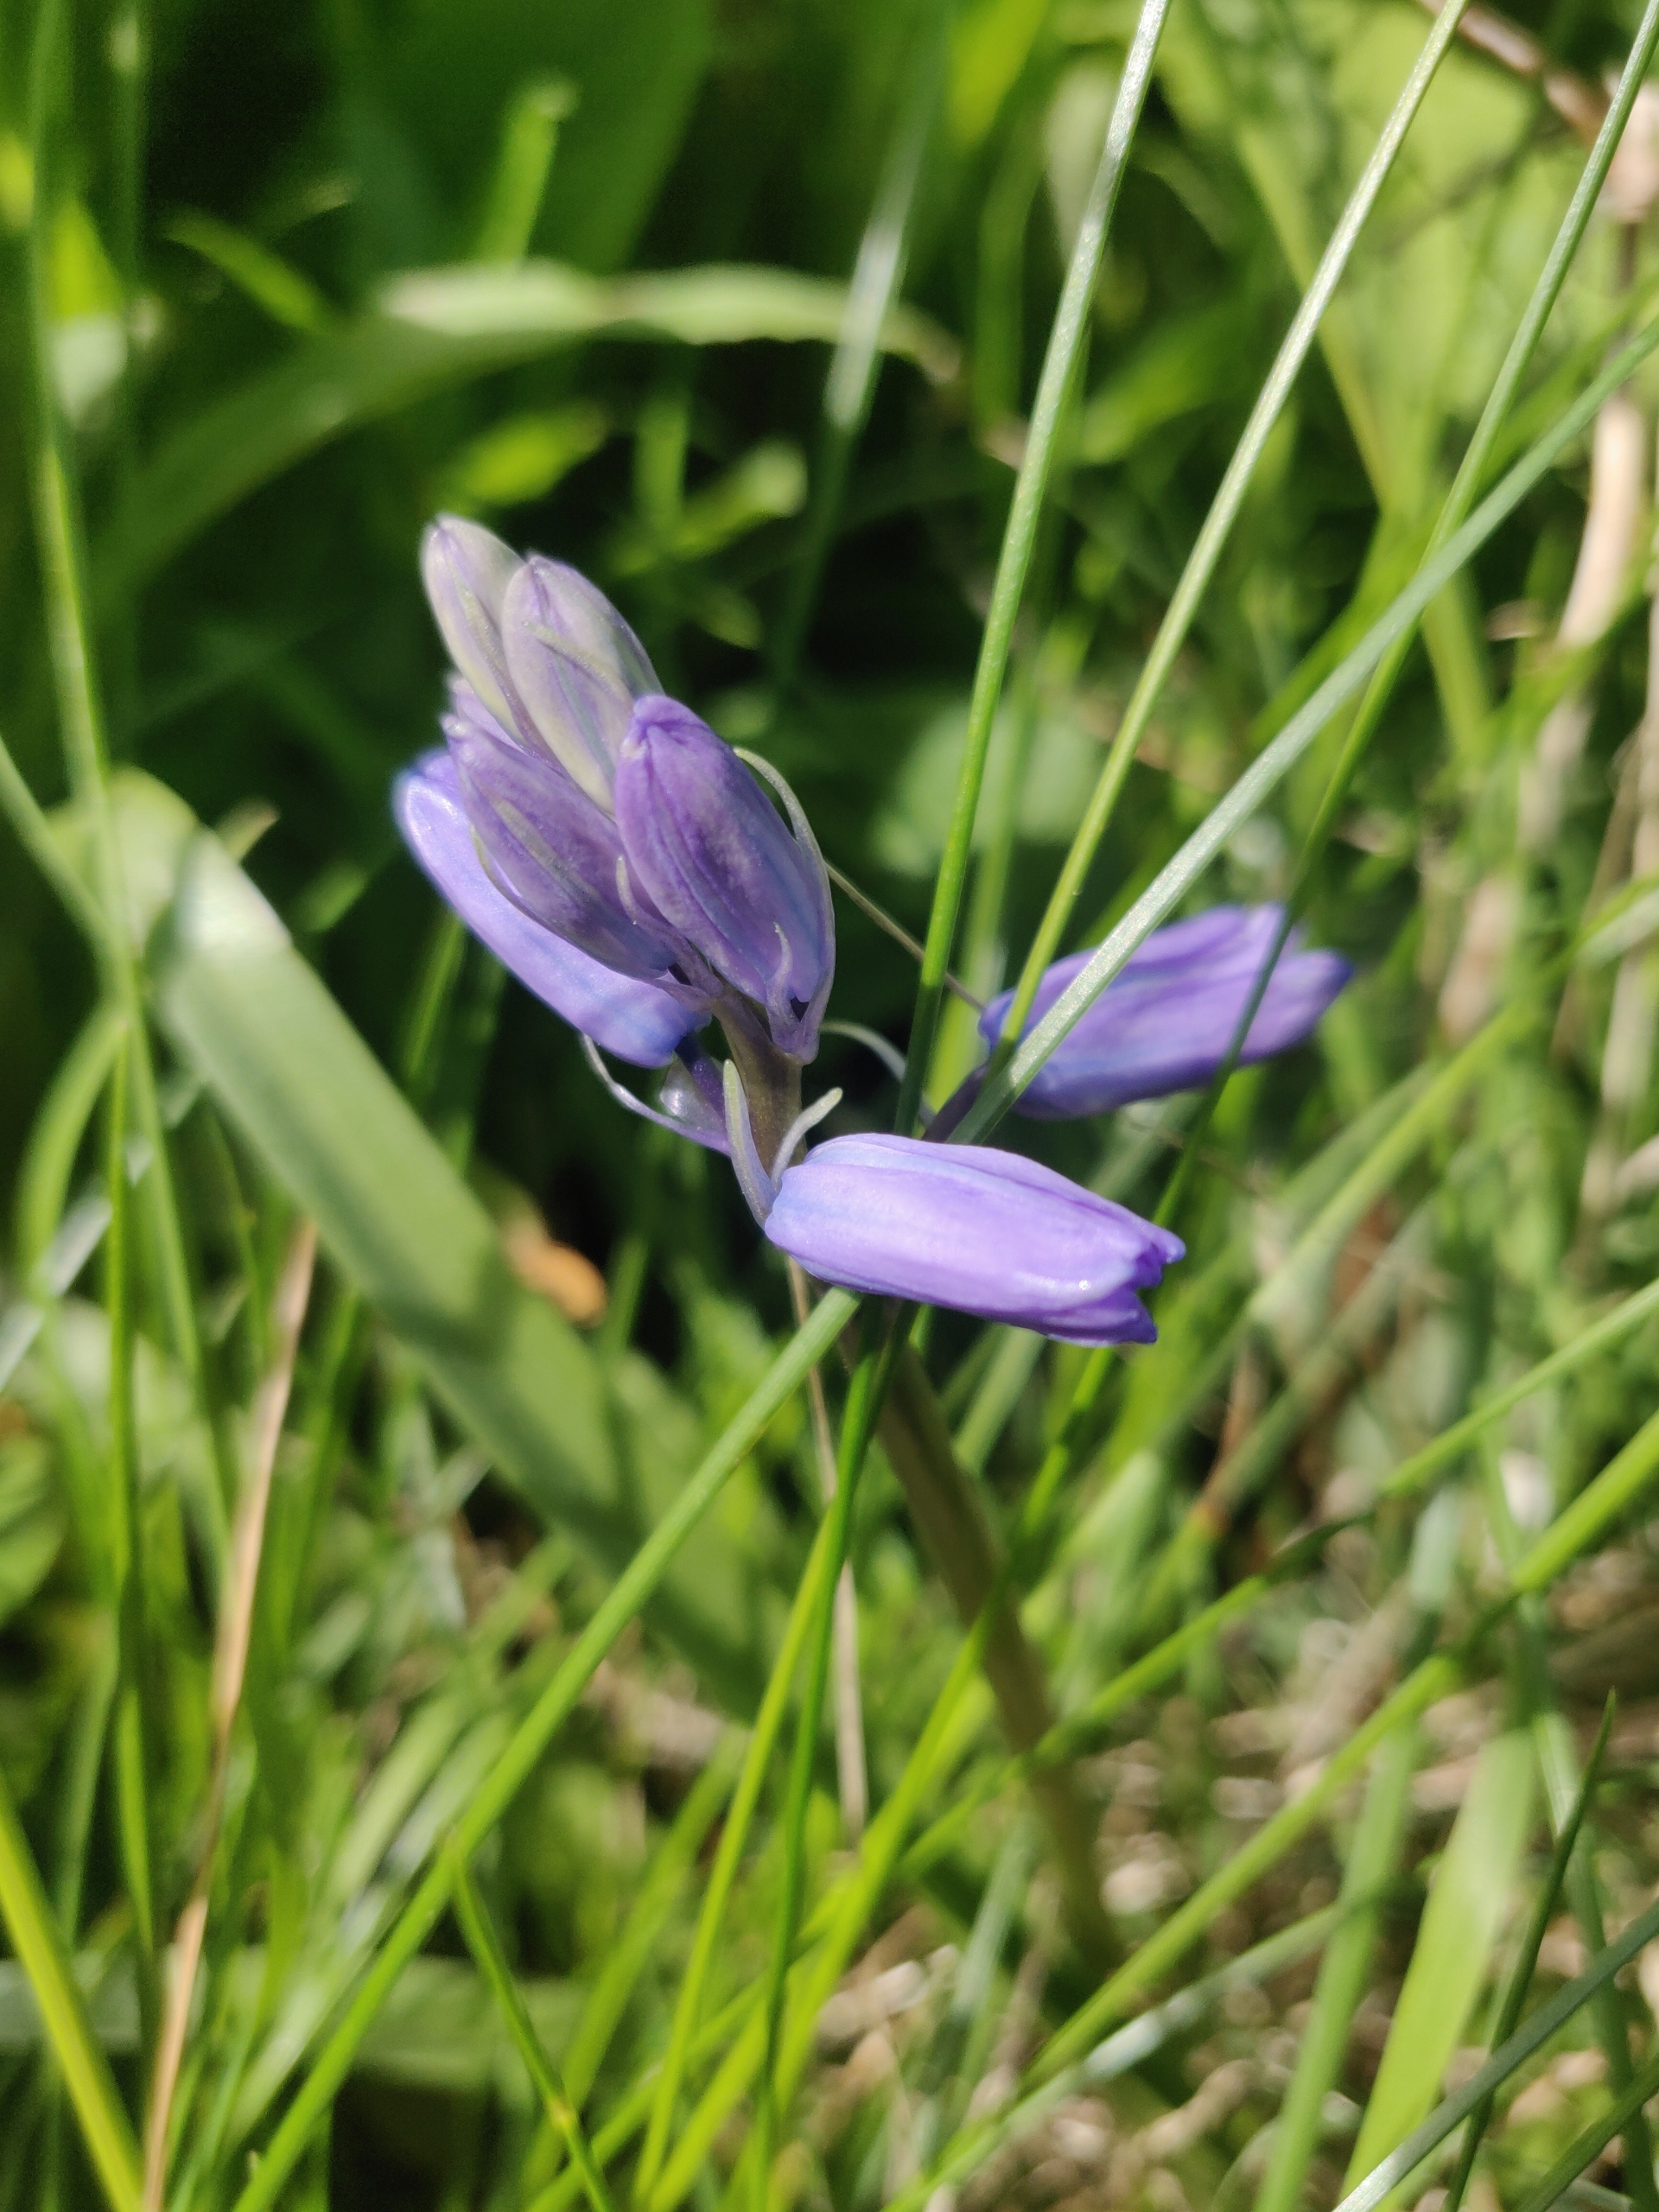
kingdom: Plantae
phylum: Tracheophyta
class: Liliopsida
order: Asparagales
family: Asparagaceae
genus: Hyacinthoides
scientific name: Hyacinthoides massartiana
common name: Hybrid-klokkeskilla
